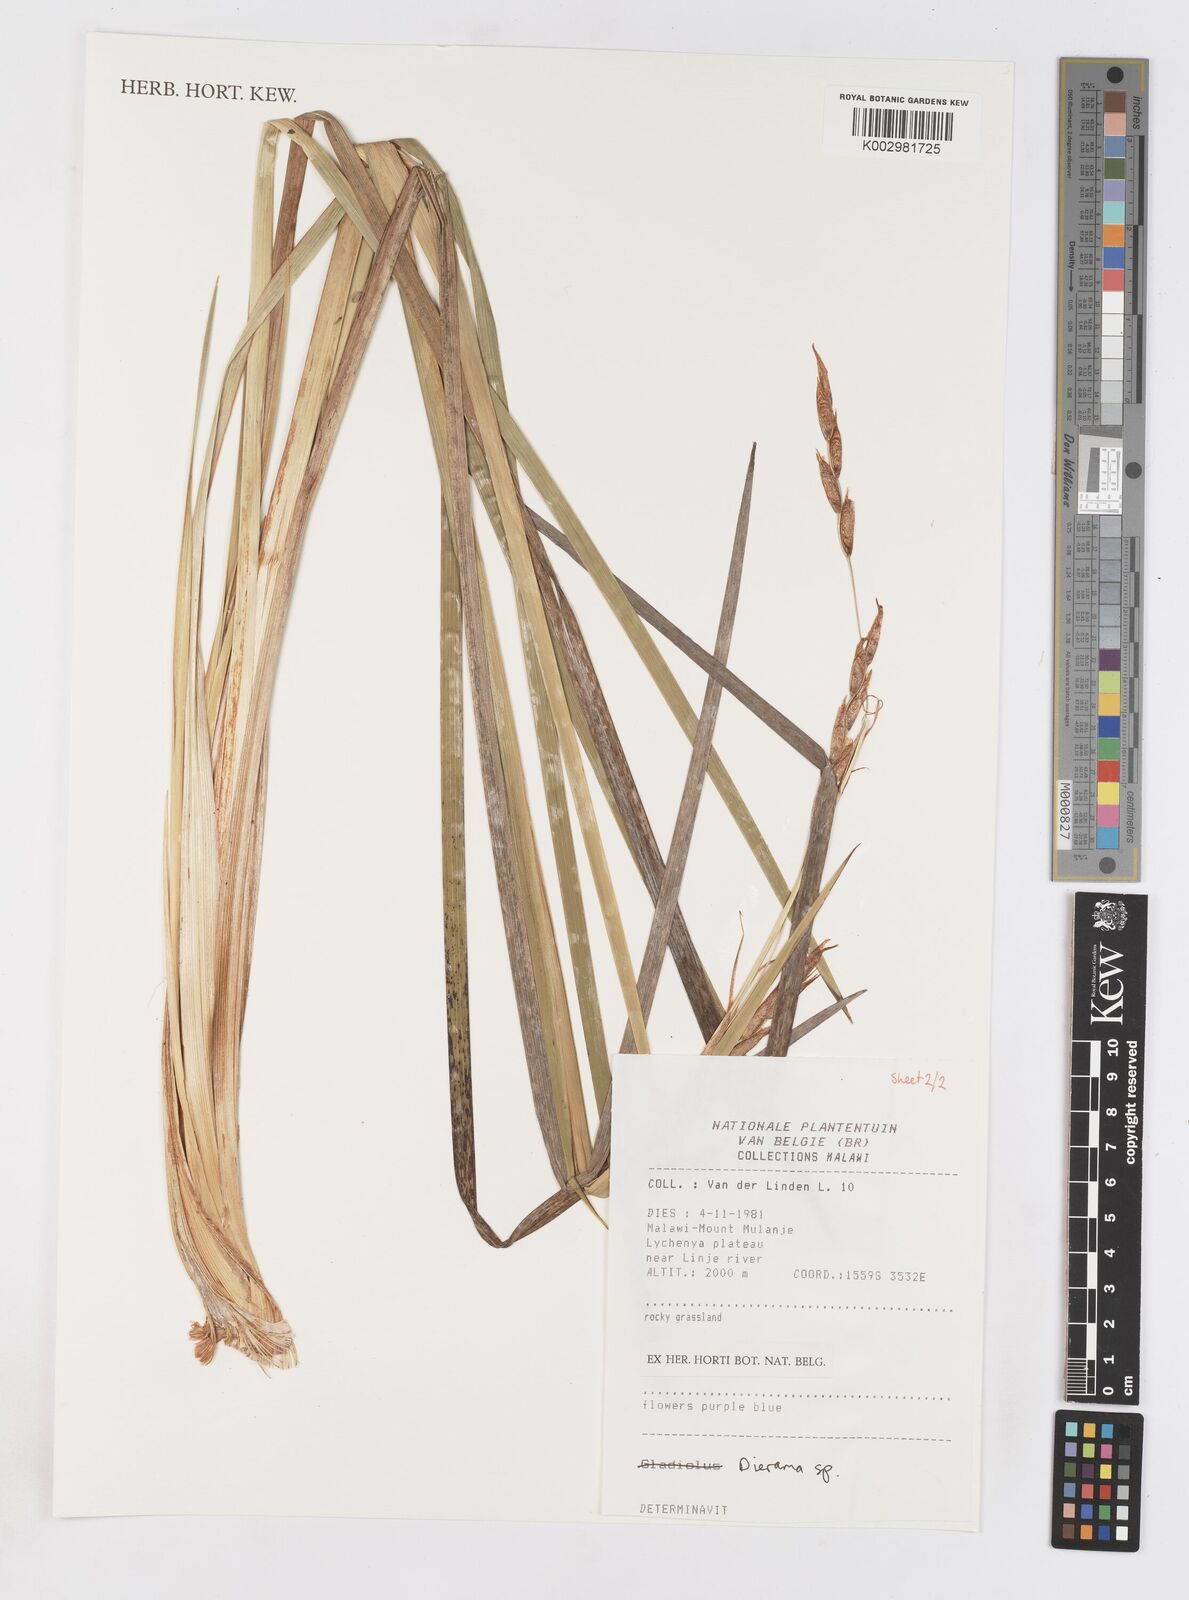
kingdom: Plantae
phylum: Tracheophyta
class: Liliopsida
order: Asparagales
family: Iridaceae
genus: Dierama
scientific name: Dierama
